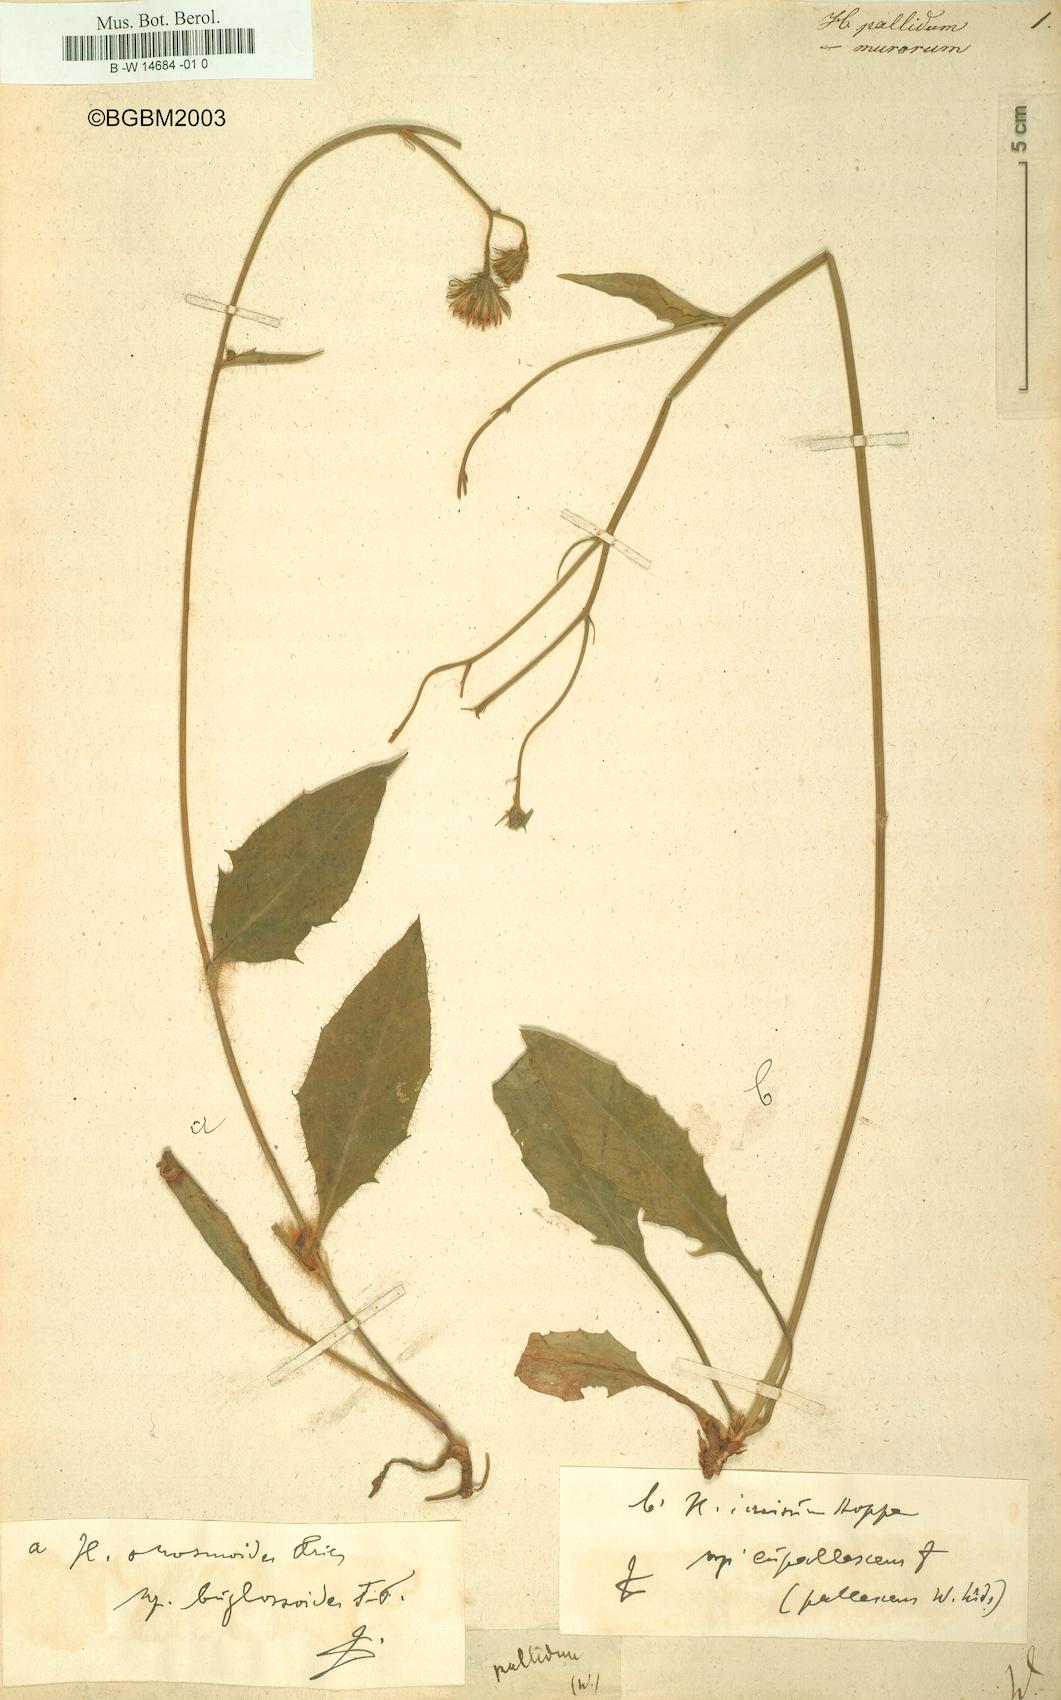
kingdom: Plantae
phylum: Tracheophyta
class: Magnoliopsida
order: Asterales
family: Asteraceae
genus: Hieracium
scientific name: Hieracium pallidum
